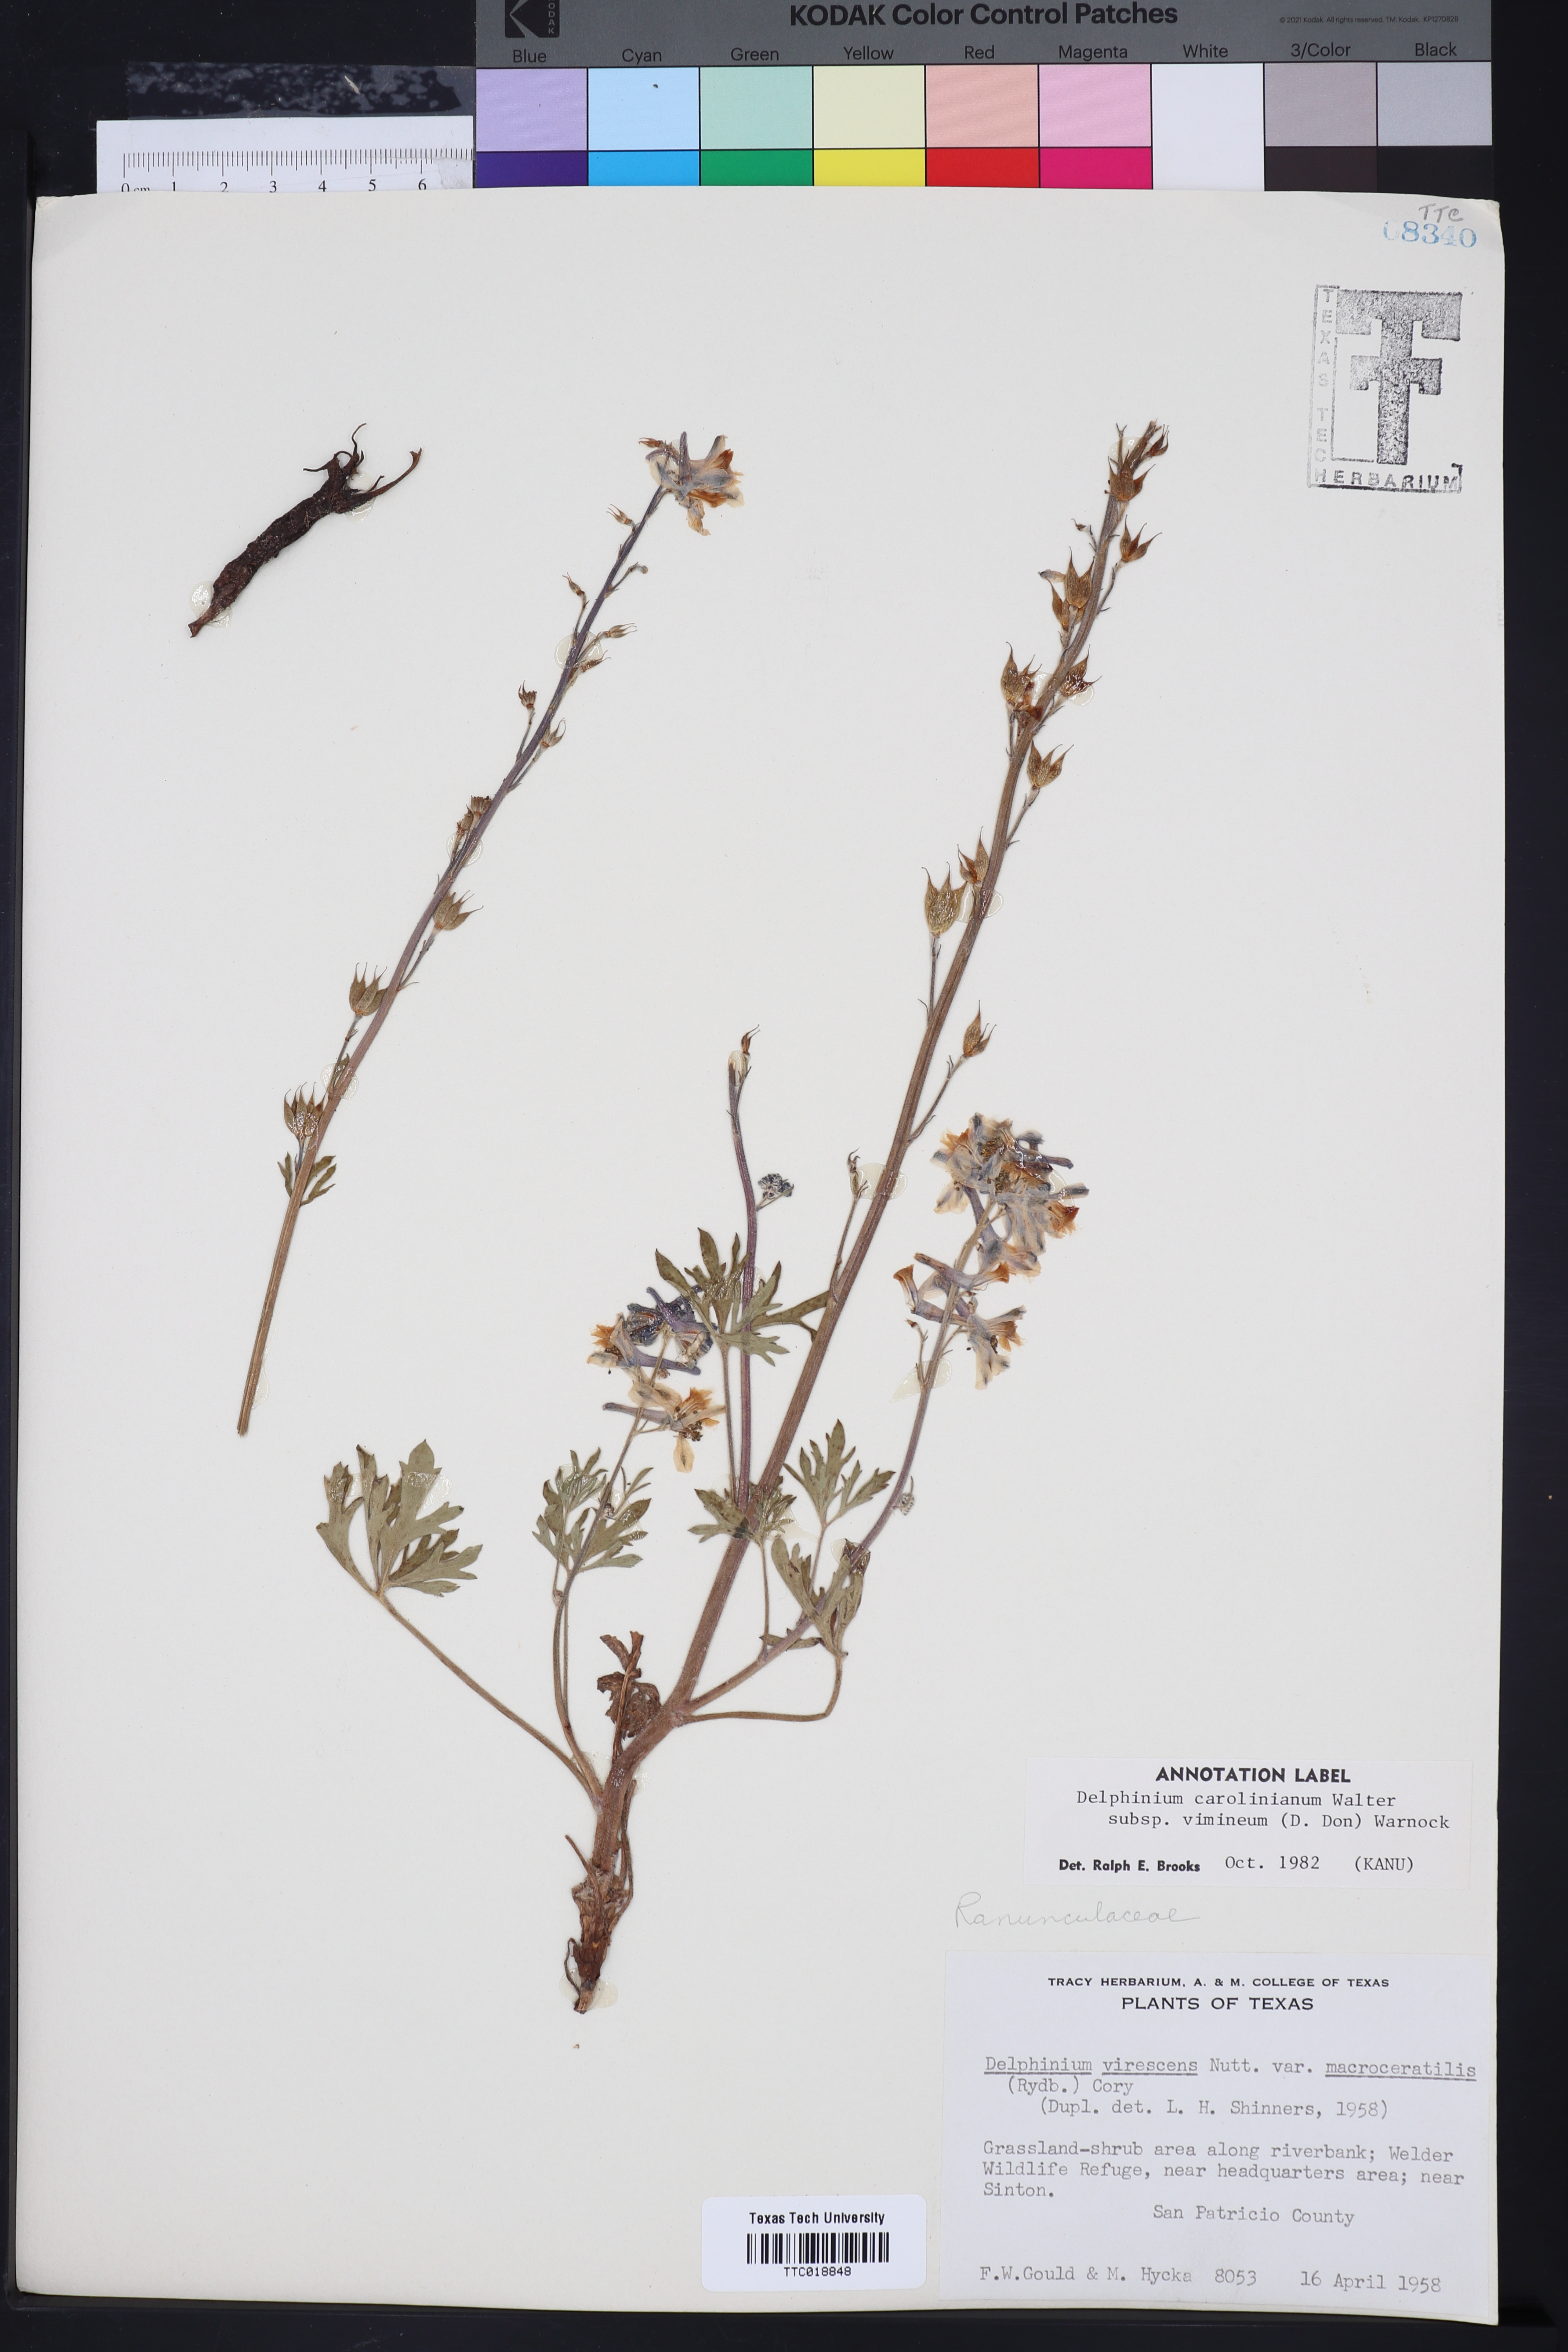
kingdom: Plantae
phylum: Tracheophyta
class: Magnoliopsida
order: Ranunculales
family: Ranunculaceae
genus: Delphinium
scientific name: Delphinium carolinianum
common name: Carolina larkspur
